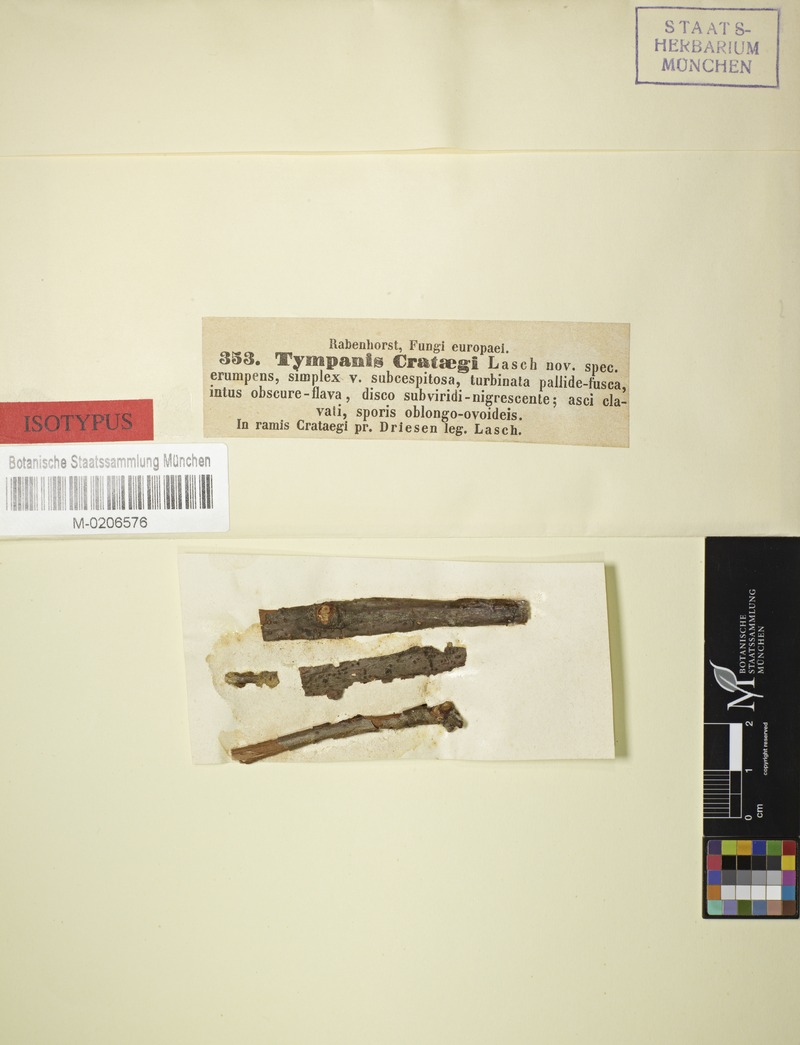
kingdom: Fungi
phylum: Ascomycota
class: Leotiomycetes
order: Helotiales
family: Dermateaceae
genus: Pezicula
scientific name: Pezicula sepium
